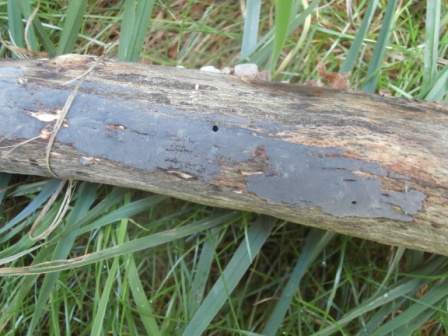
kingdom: Fungi
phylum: Basidiomycota
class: Agaricomycetes
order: Russulales
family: Peniophoraceae
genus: Peniophora
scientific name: Peniophora lycii
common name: grynet voksskind
